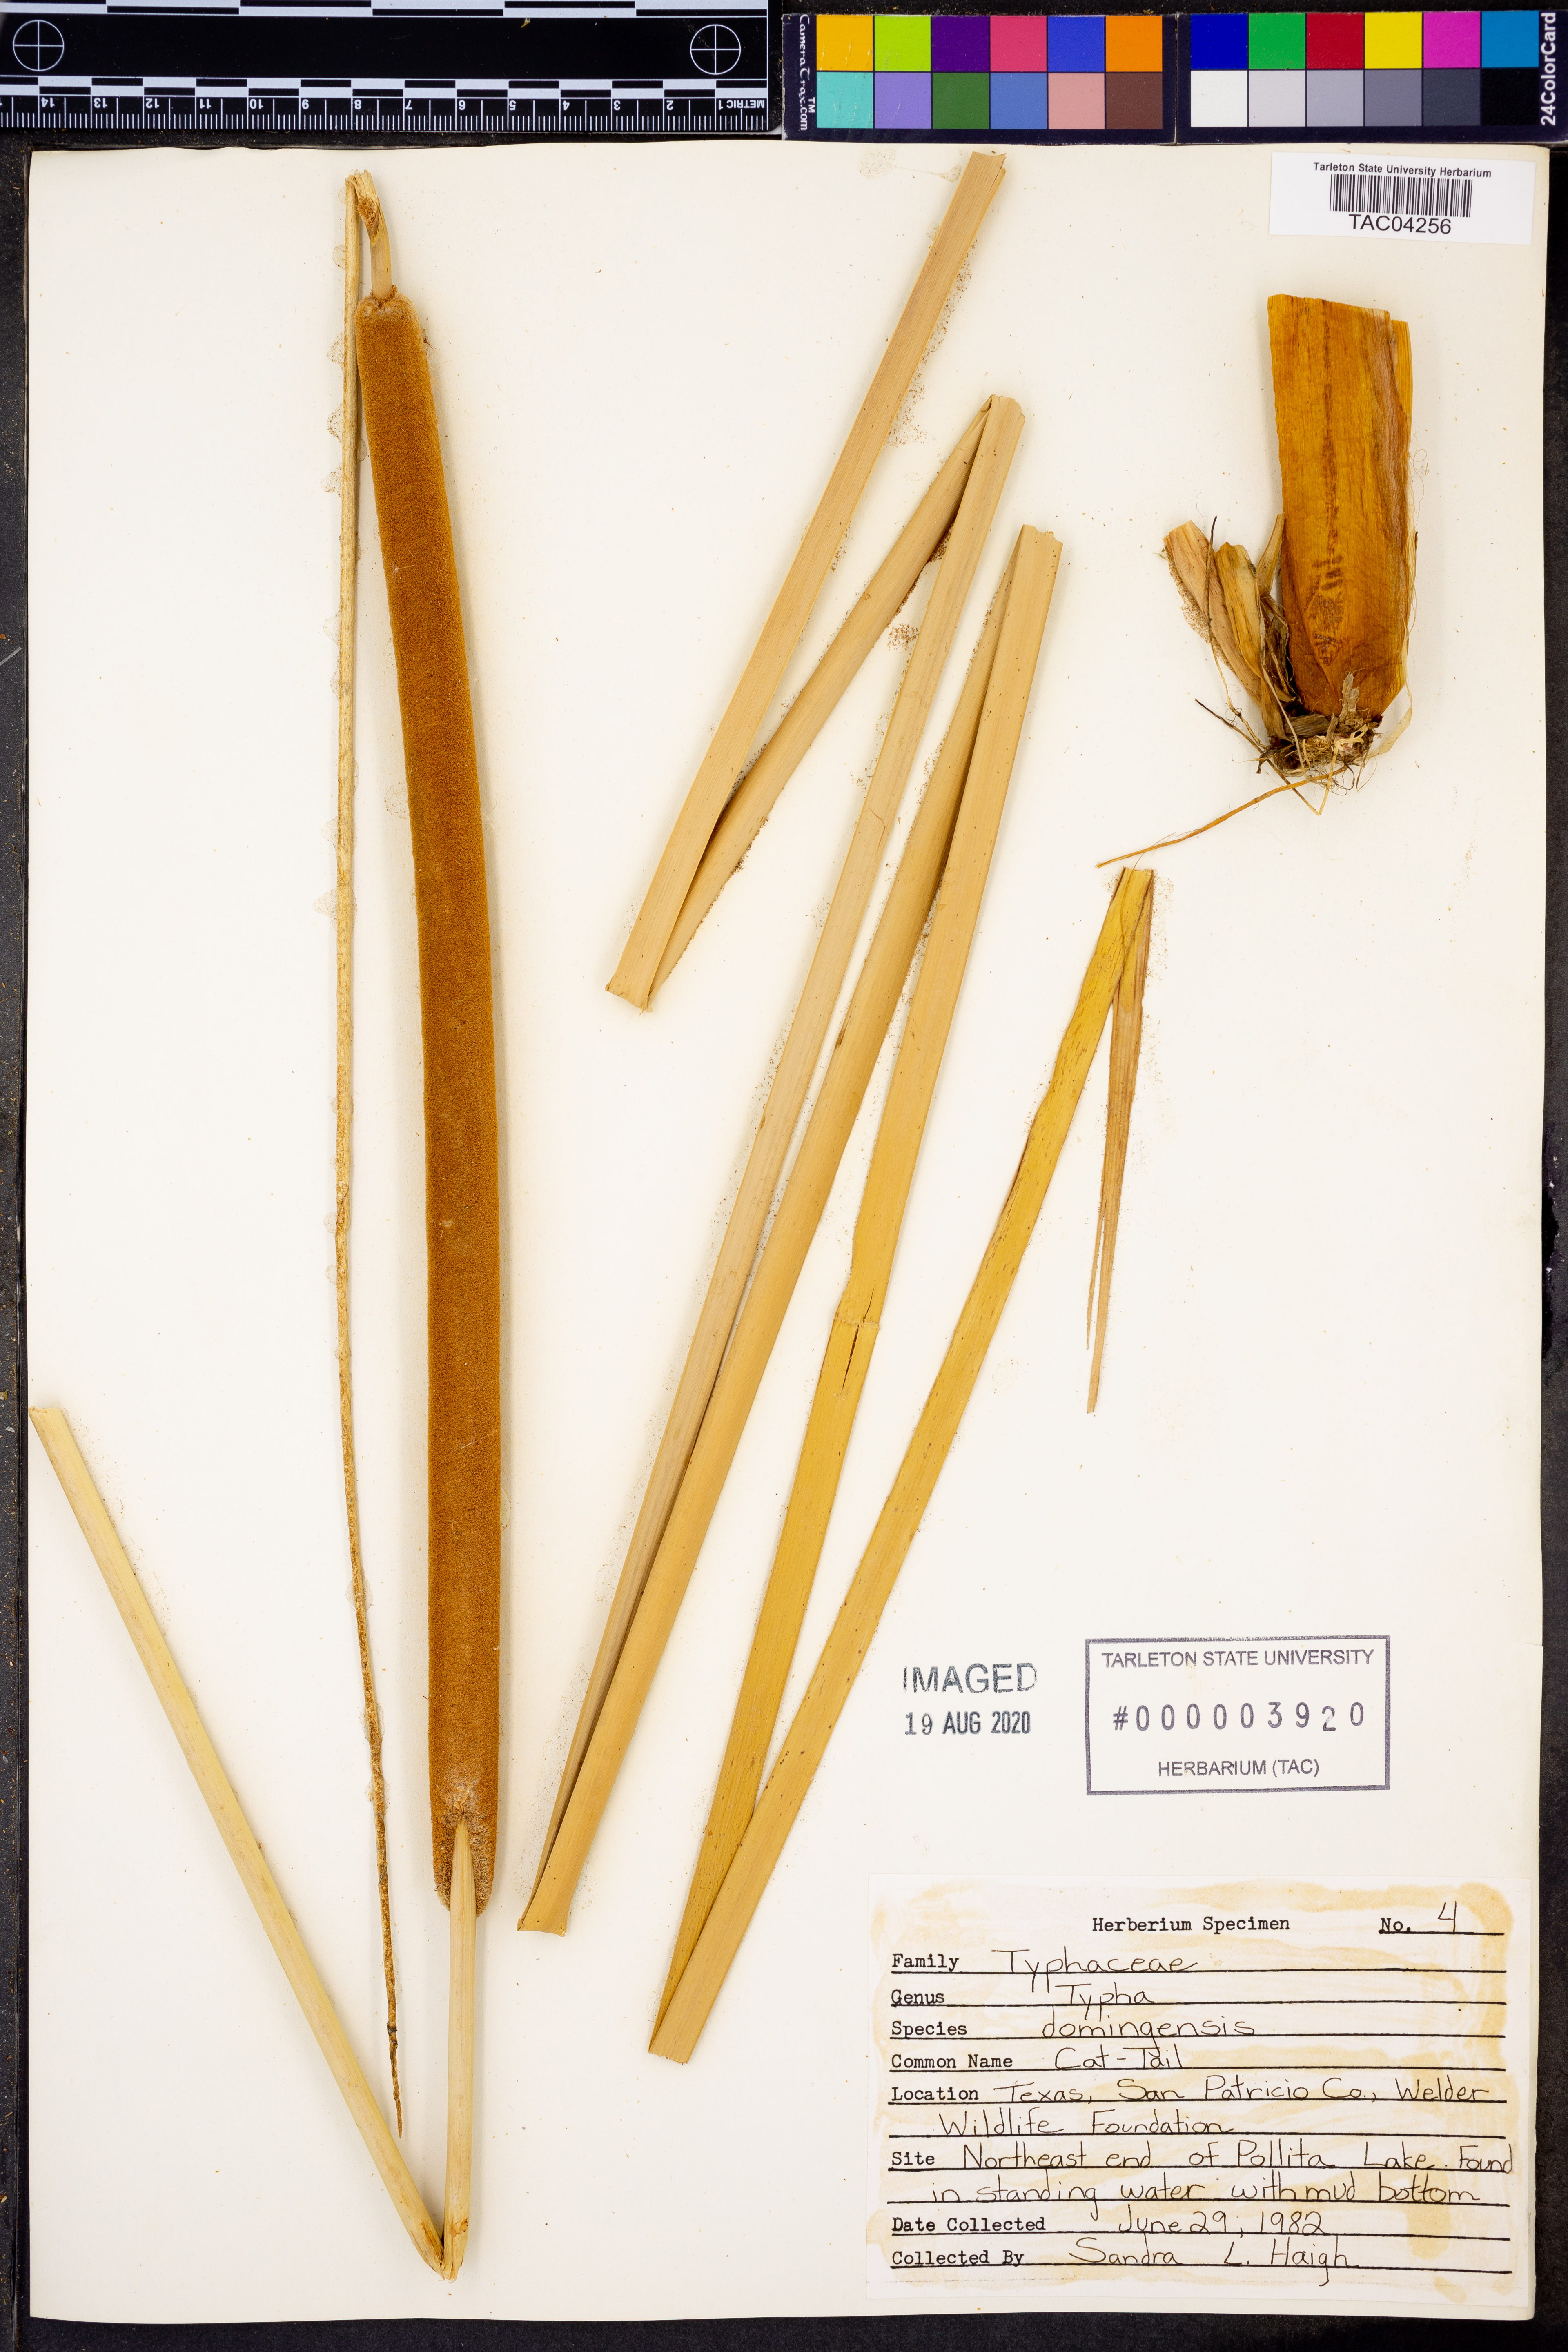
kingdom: Plantae
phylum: Tracheophyta
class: Liliopsida
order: Poales
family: Typhaceae
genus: Typha
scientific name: Typha domingensis
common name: Southern cattail
